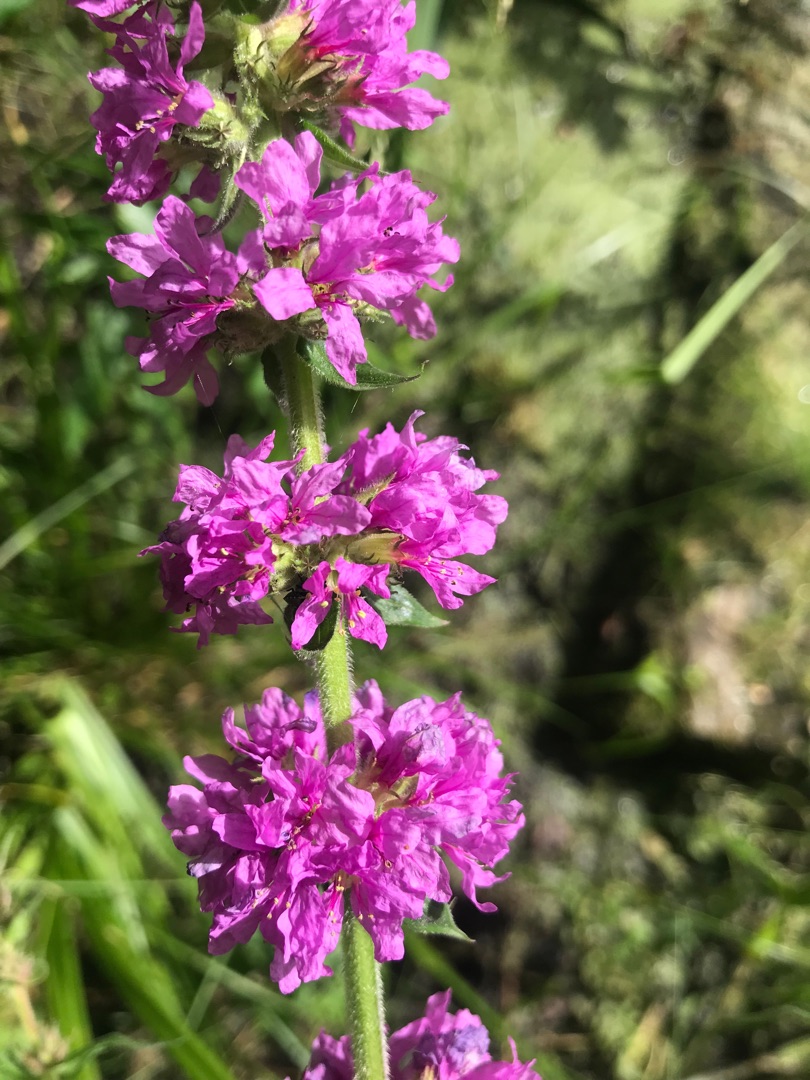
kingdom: Plantae
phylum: Tracheophyta
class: Magnoliopsida
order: Myrtales
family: Lythraceae
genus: Lythrum
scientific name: Lythrum salicaria
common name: Kattehale
